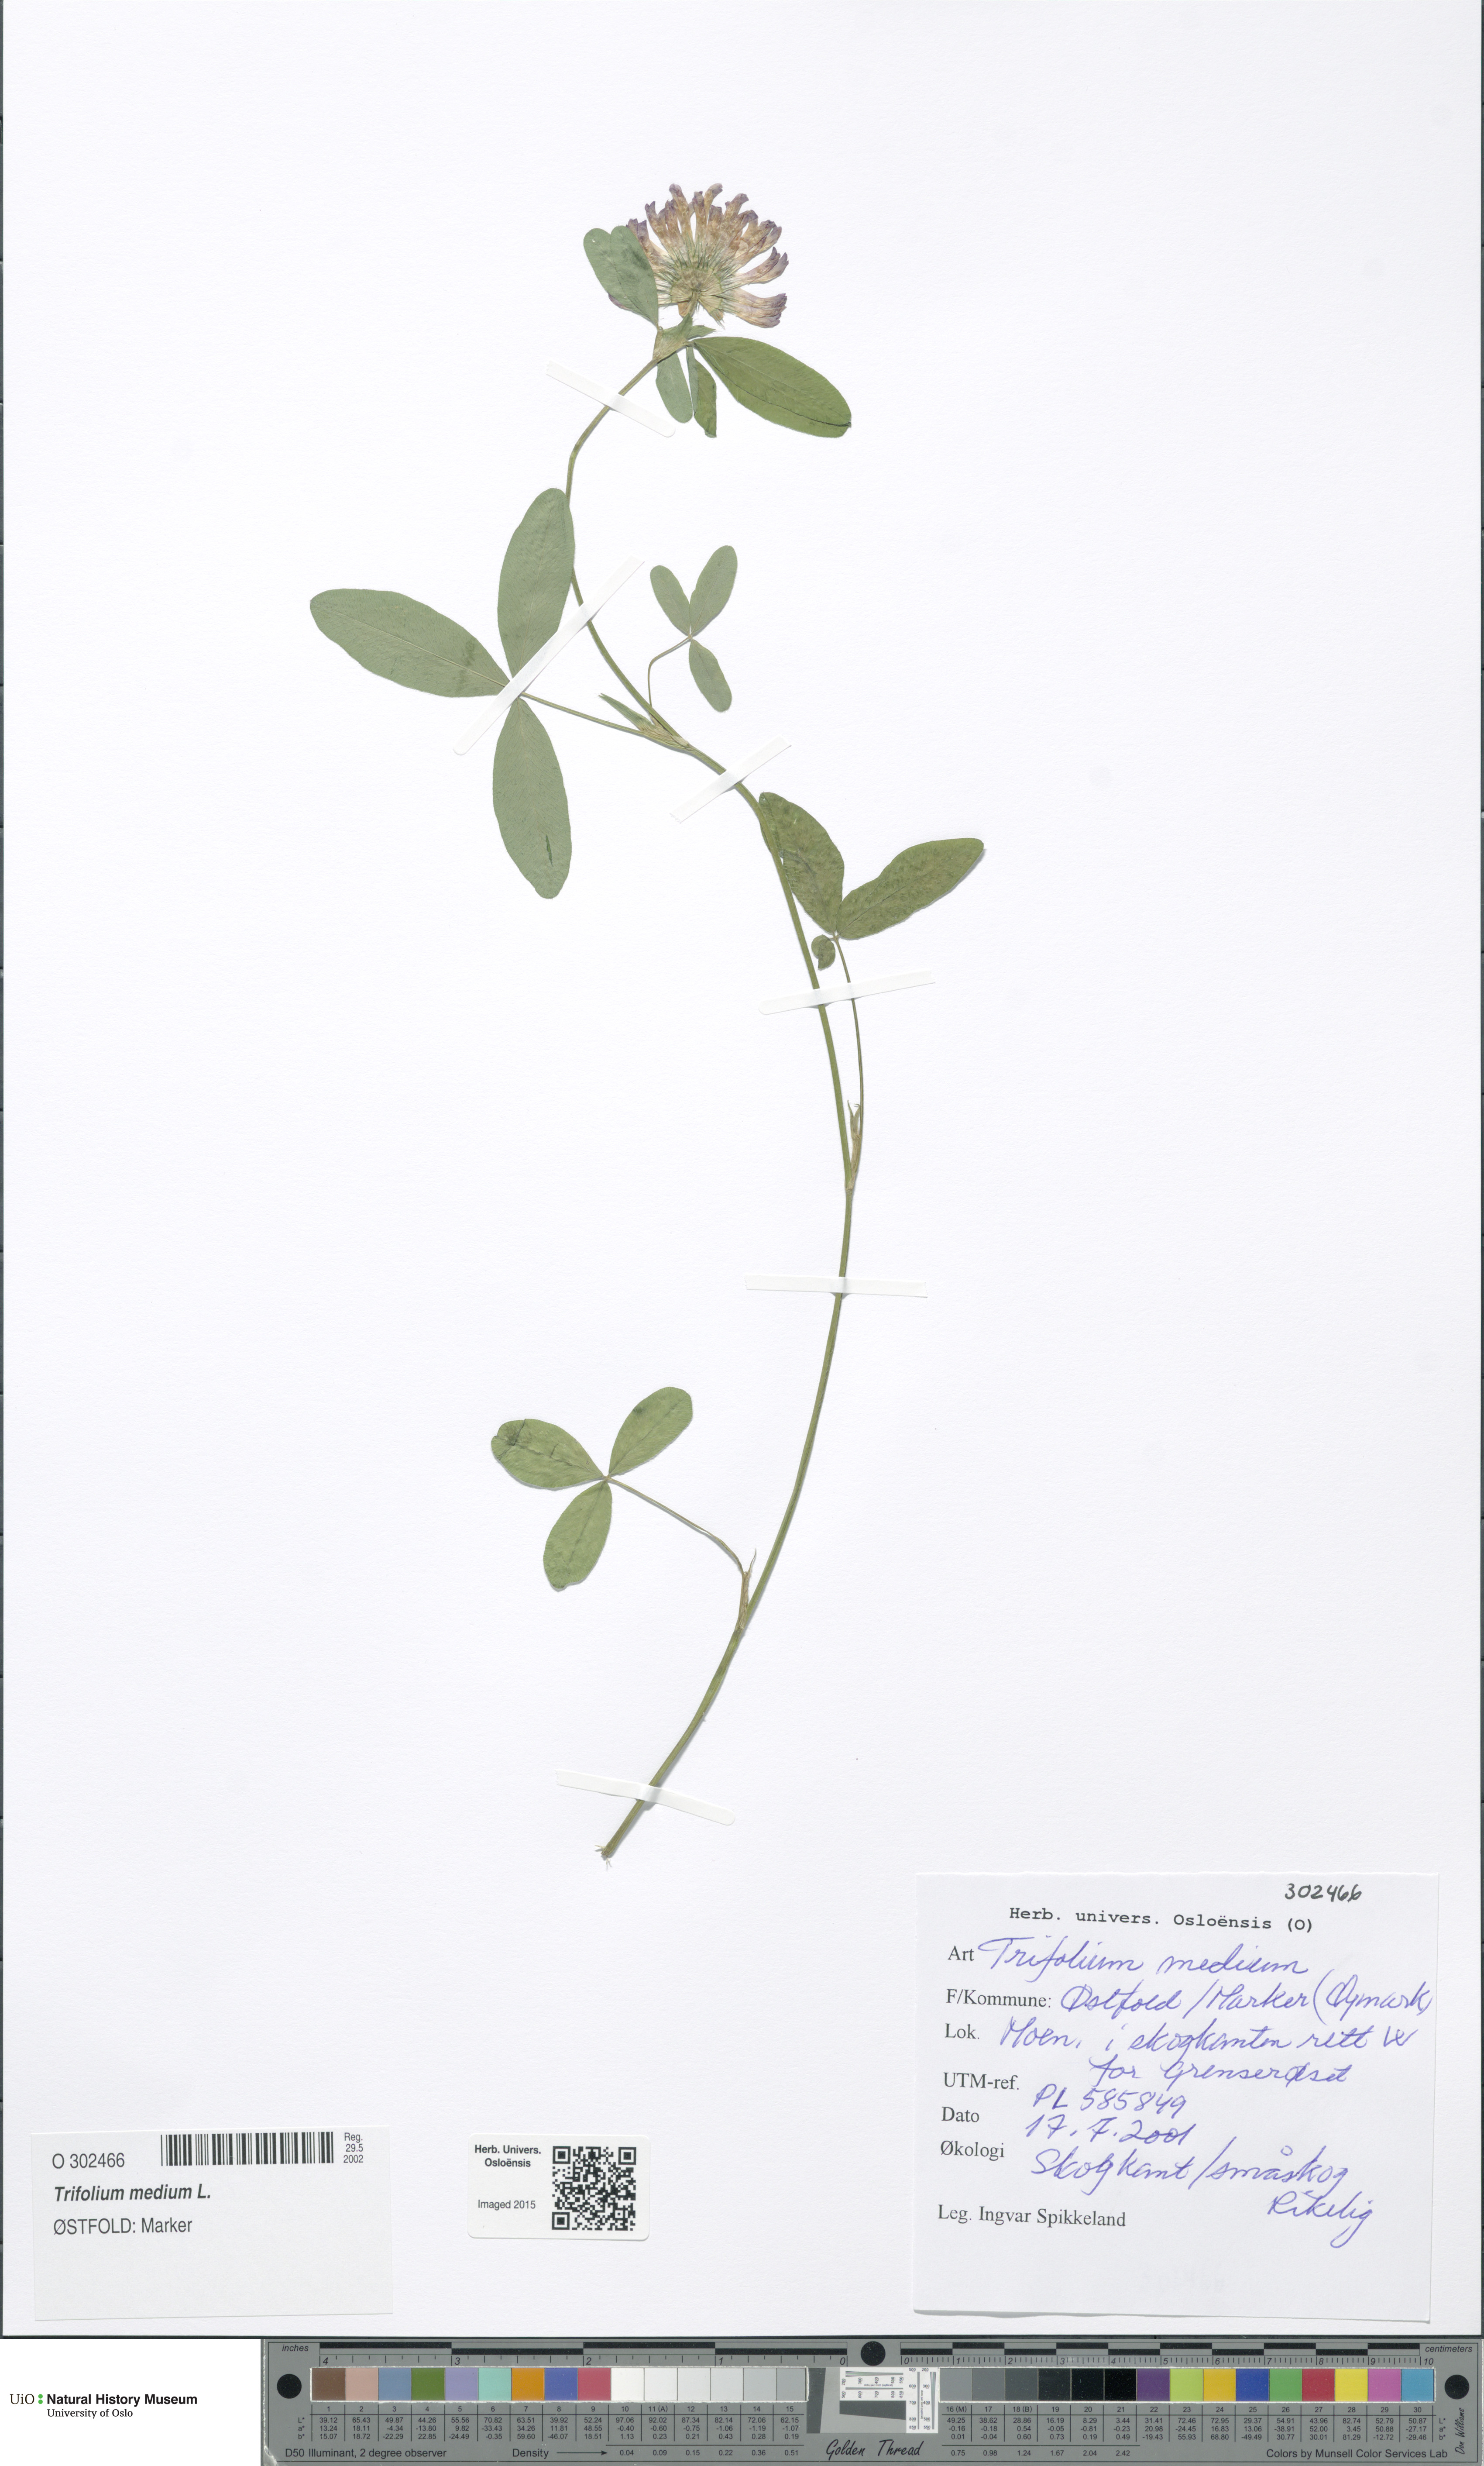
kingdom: Plantae
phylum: Tracheophyta
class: Magnoliopsida
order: Fabales
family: Fabaceae
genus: Trifolium
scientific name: Trifolium medium
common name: Zigzag clover
